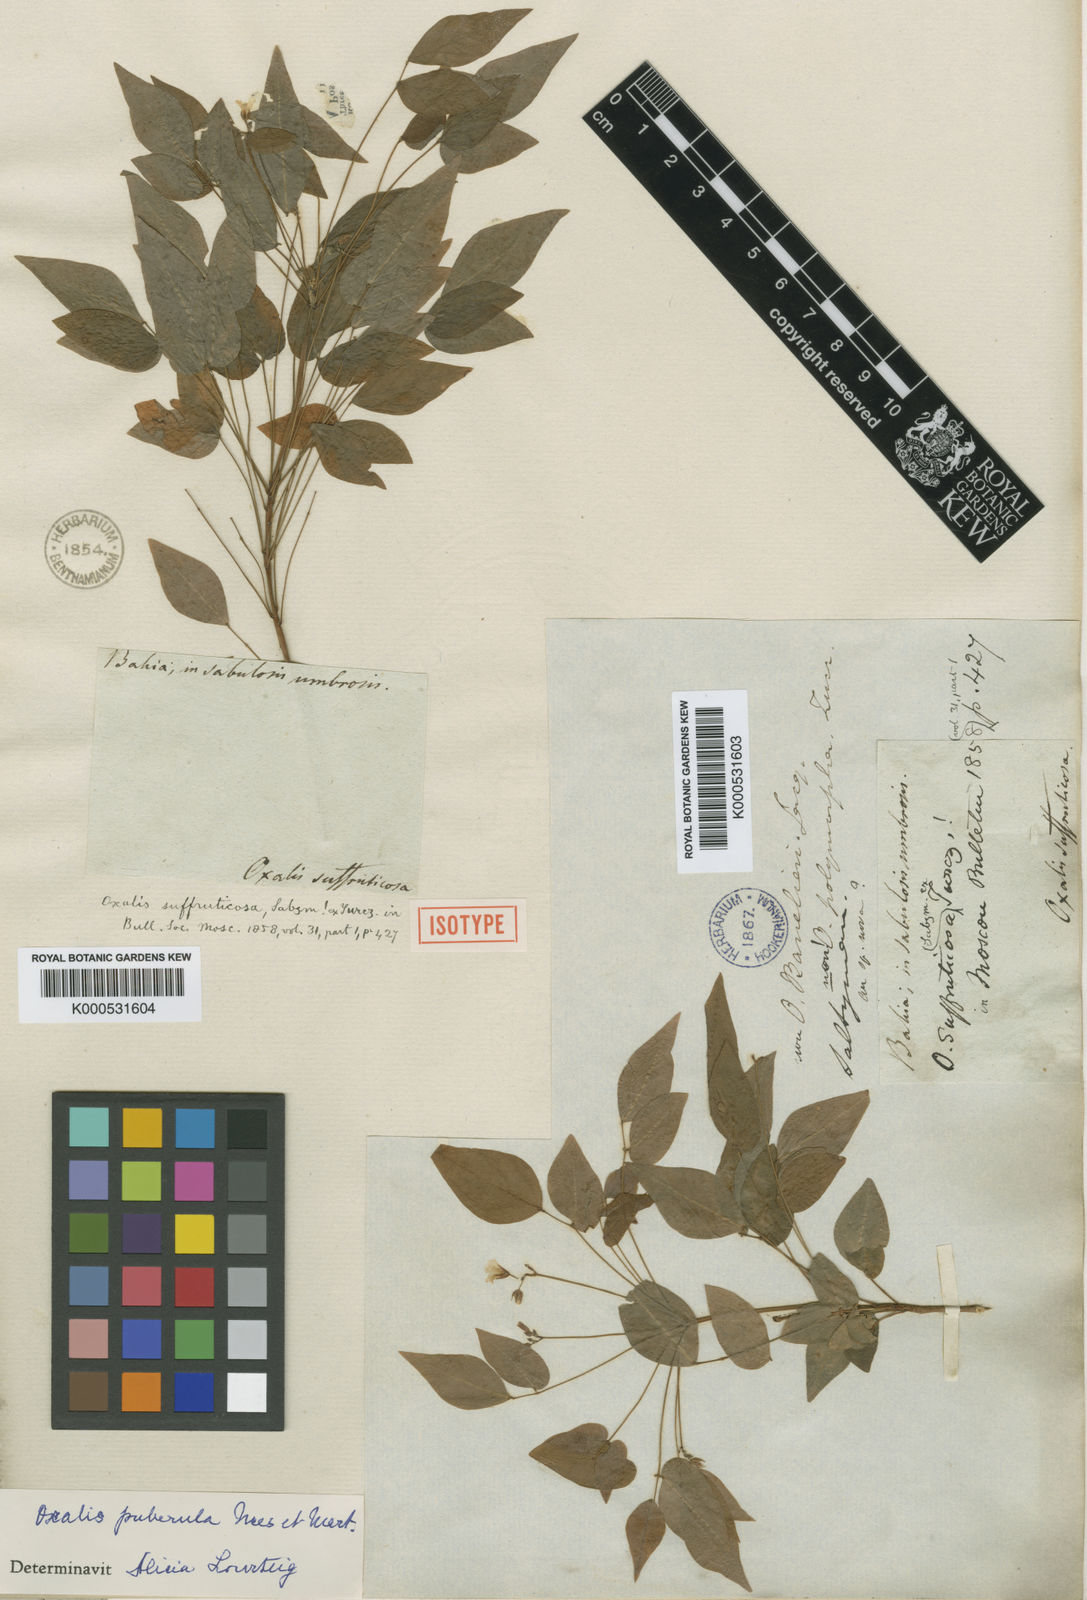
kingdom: Plantae
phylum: Tracheophyta
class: Magnoliopsida
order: Oxalidales
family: Oxalidaceae
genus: Oxalis
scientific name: Oxalis puberula
